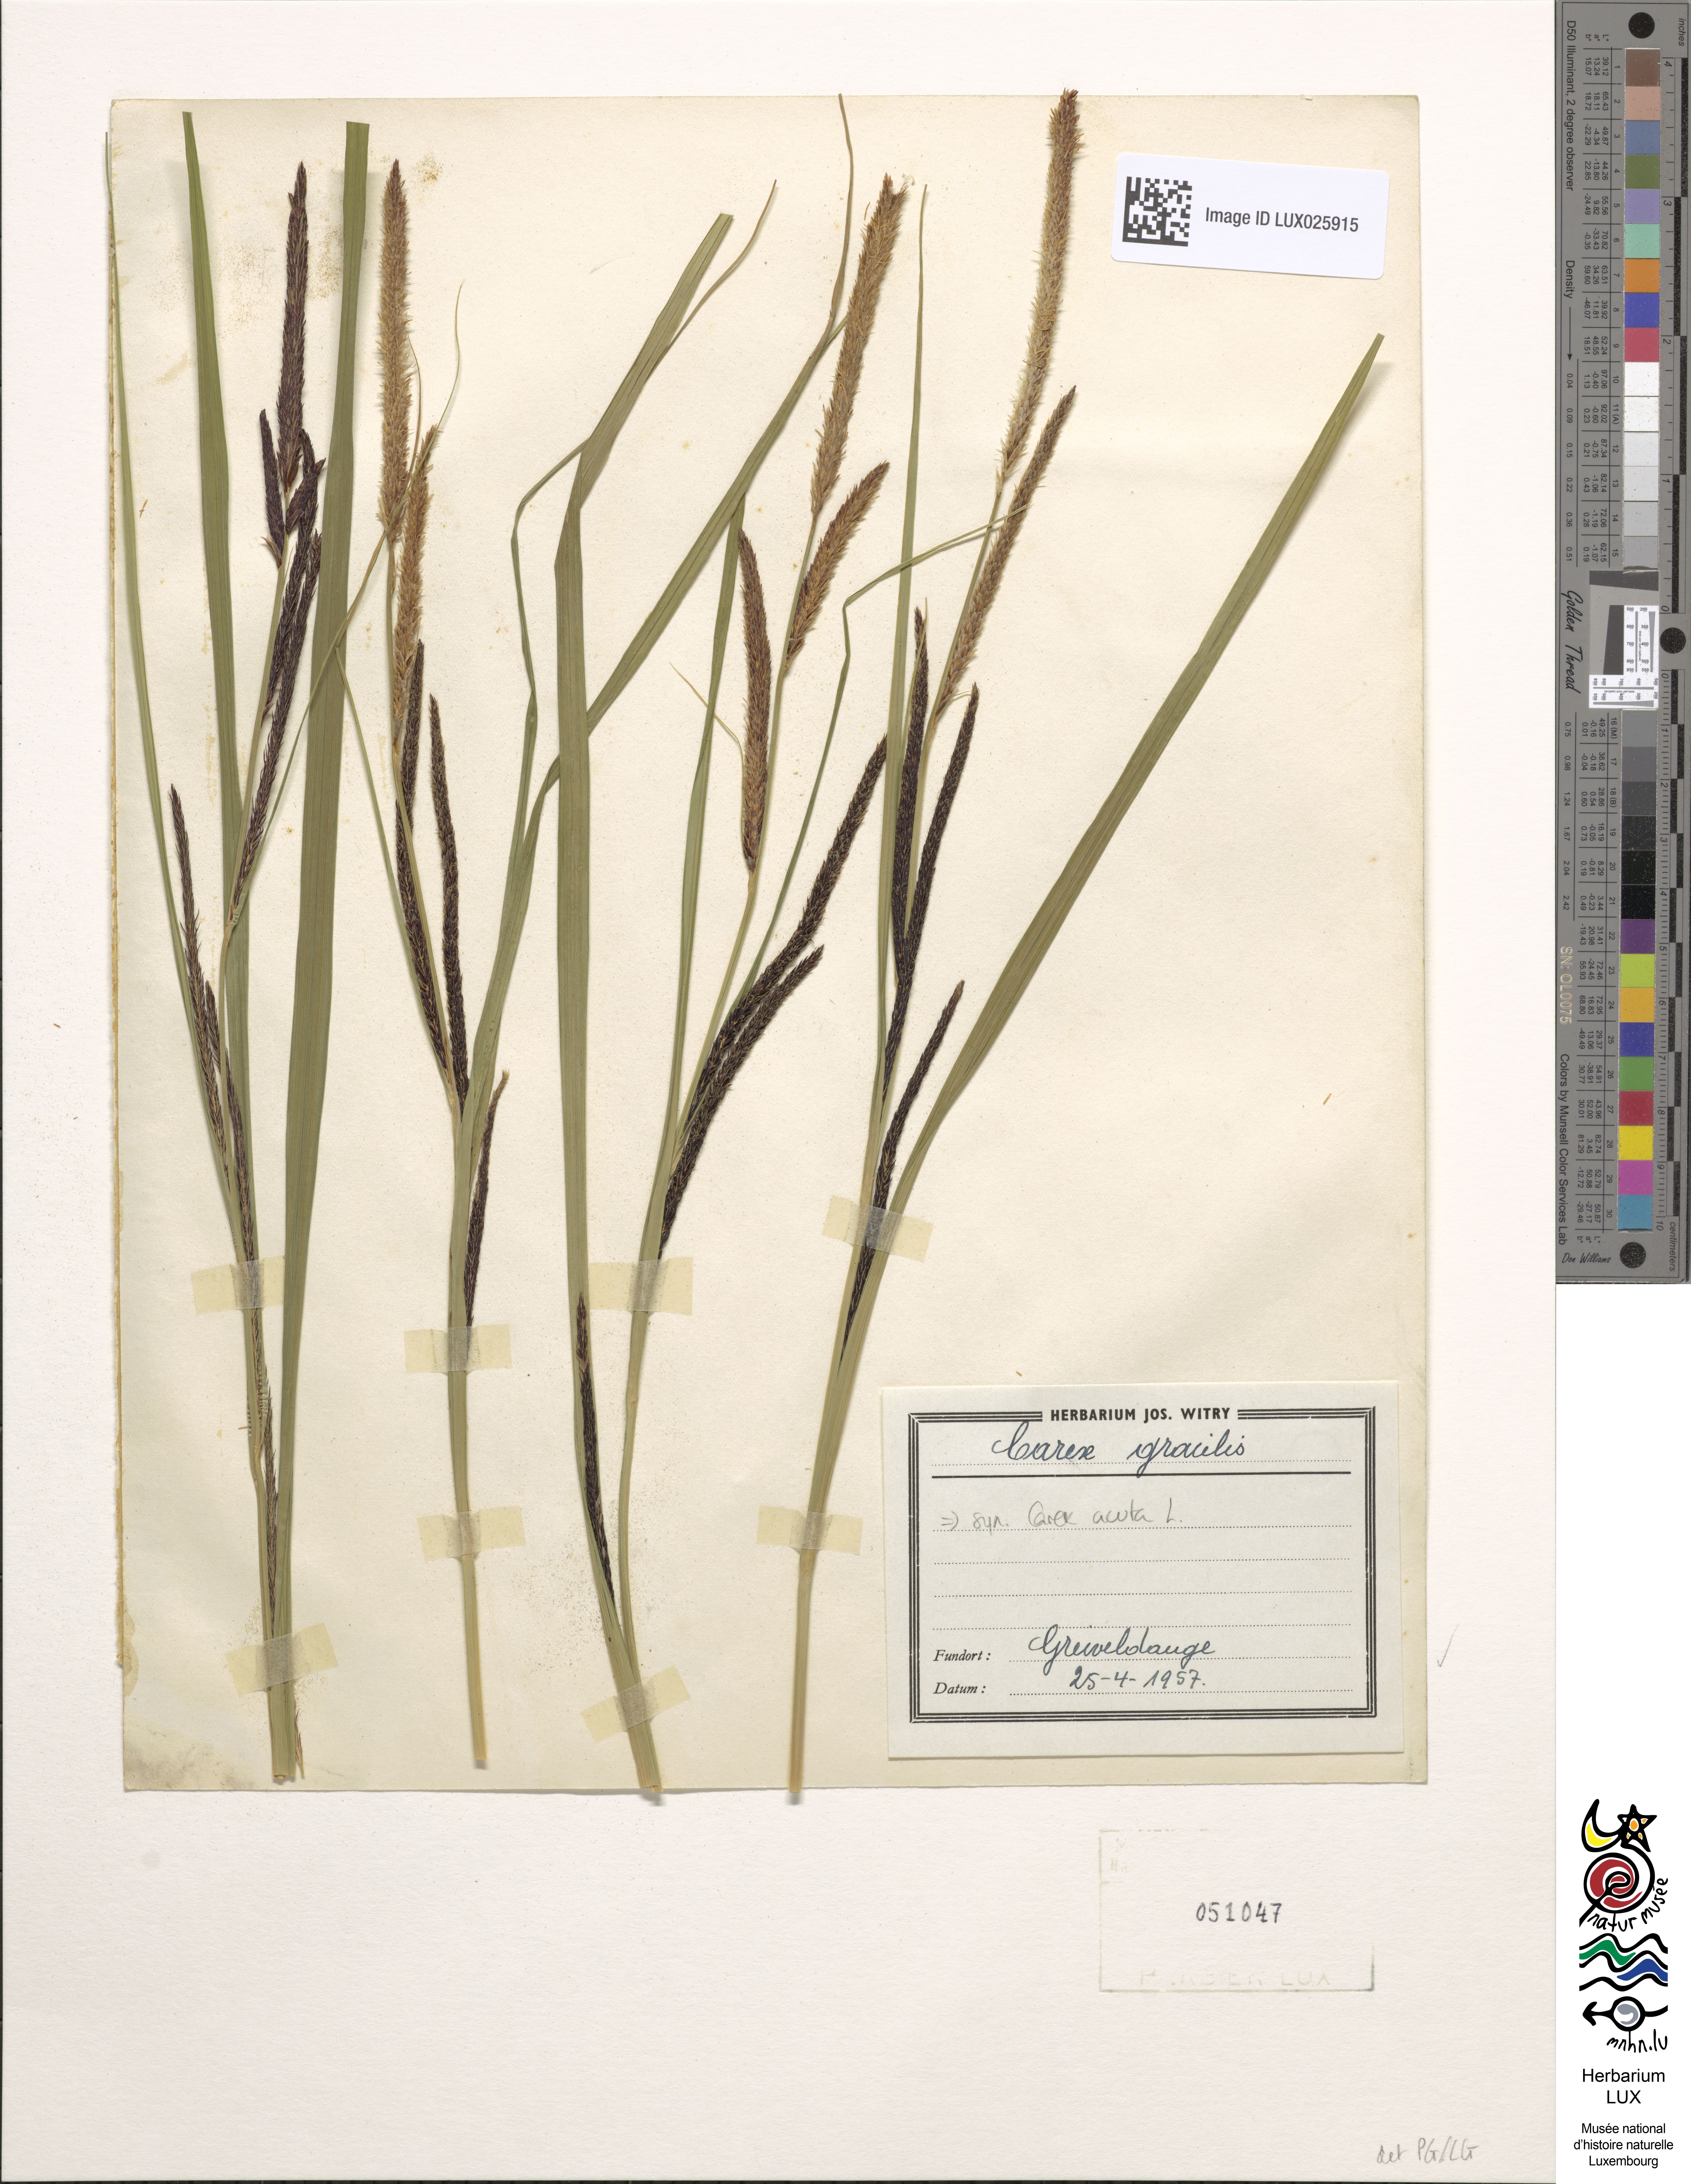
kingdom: Plantae
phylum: Tracheophyta
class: Liliopsida
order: Poales
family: Cyperaceae
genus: Carex
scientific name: Carex acuta
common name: Slender tufted-sedge
